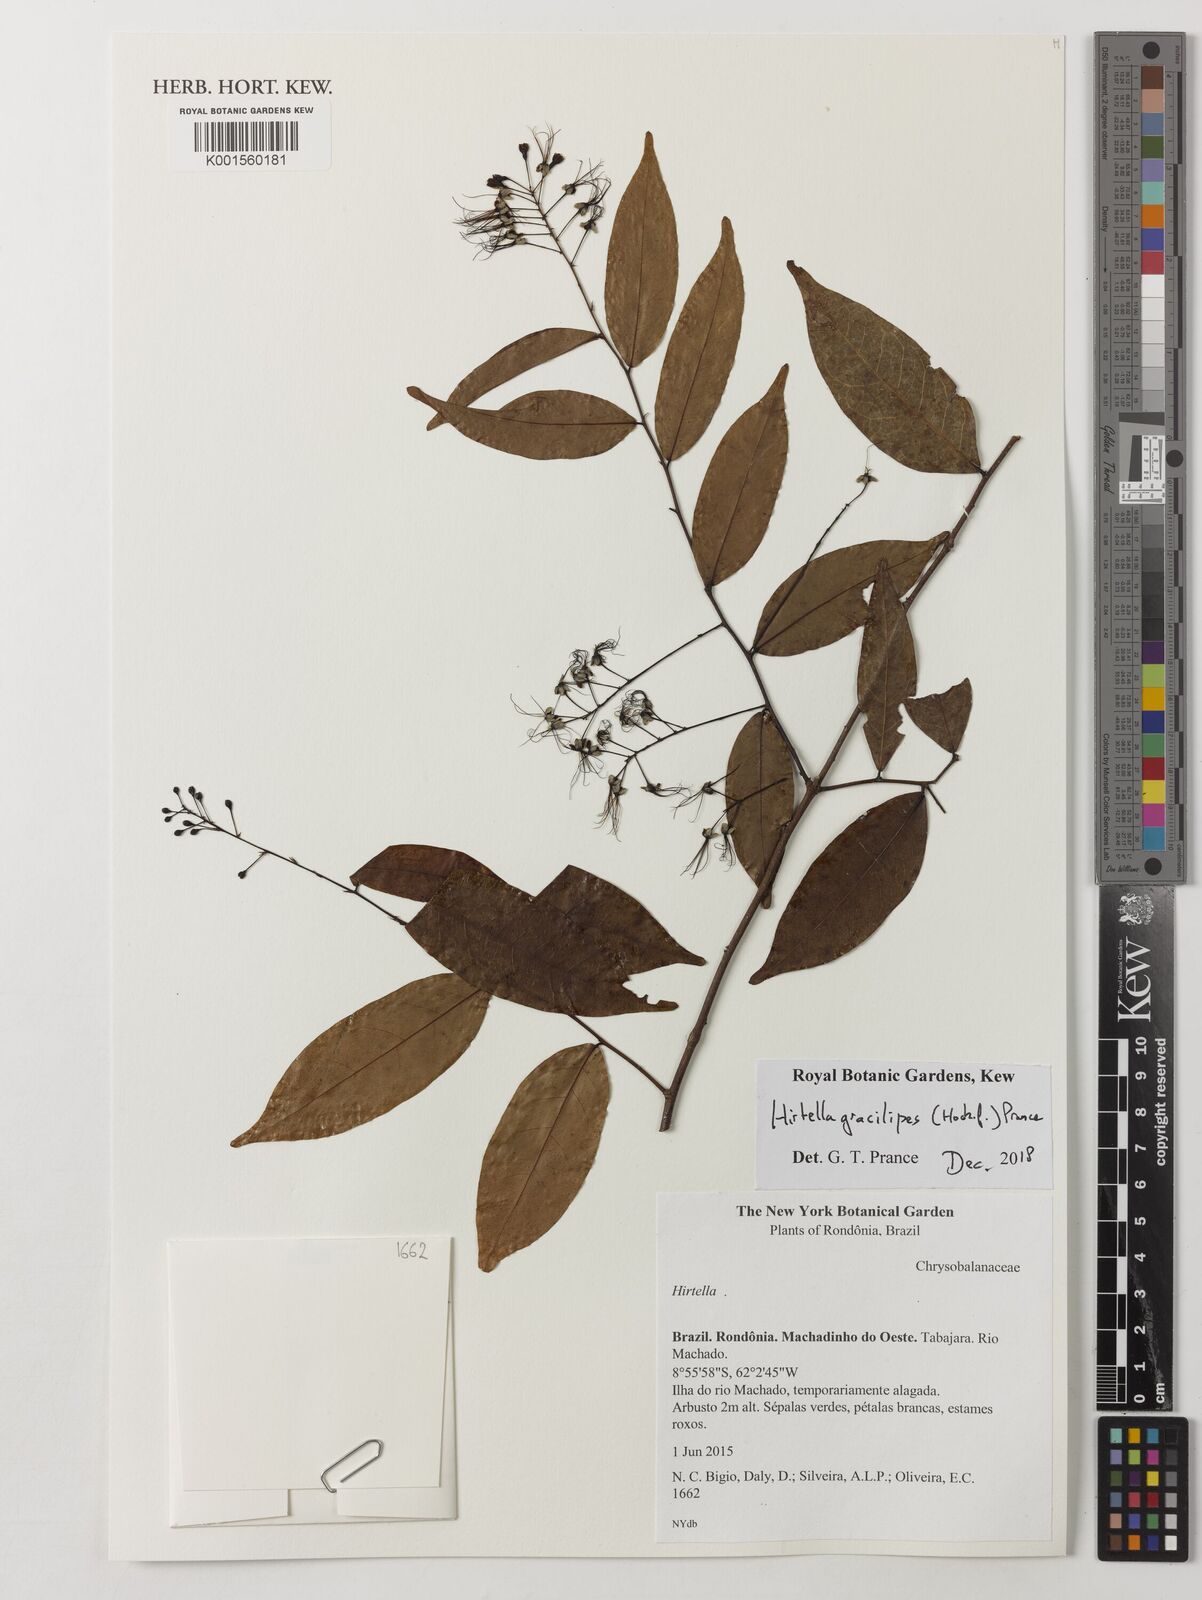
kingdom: Plantae
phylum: Tracheophyta
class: Magnoliopsida
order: Malpighiales
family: Chrysobalanaceae
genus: Hirtella
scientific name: Hirtella gracilipes
